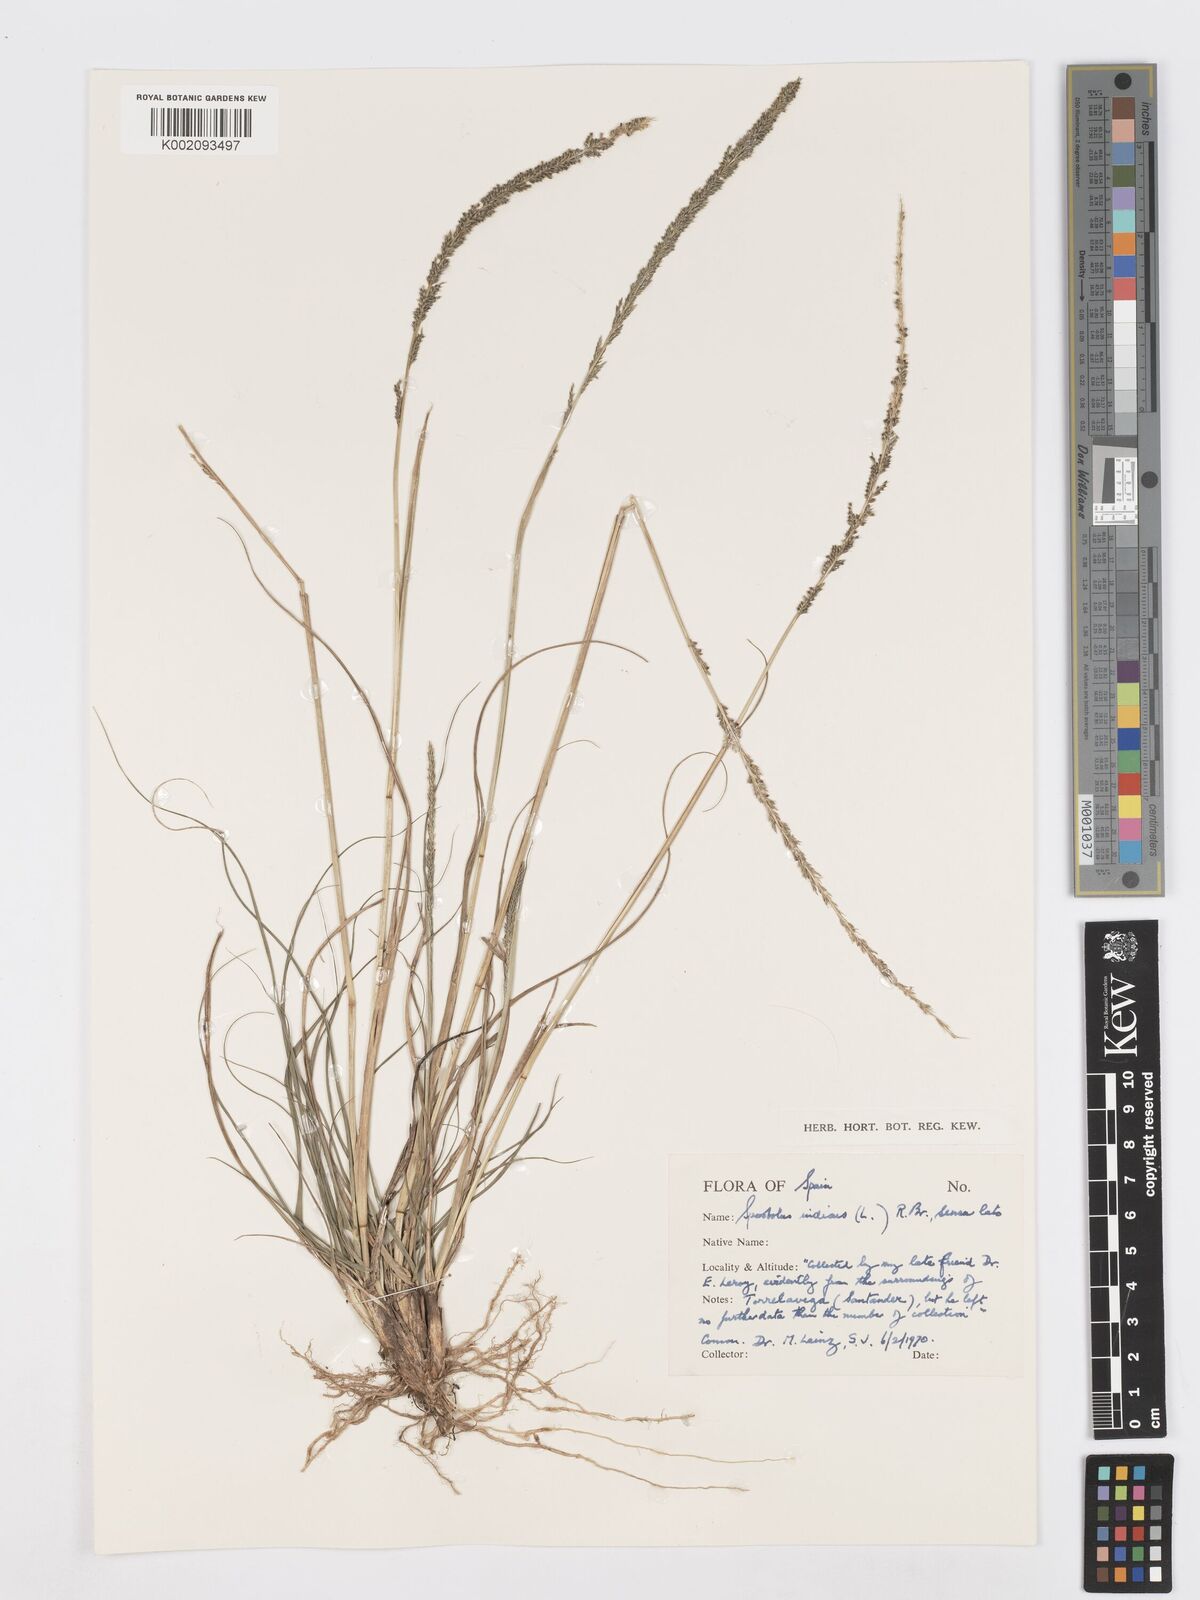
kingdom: Plantae
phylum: Tracheophyta
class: Liliopsida
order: Poales
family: Poaceae
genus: Sporobolus
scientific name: Sporobolus indicus
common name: Smut grass
